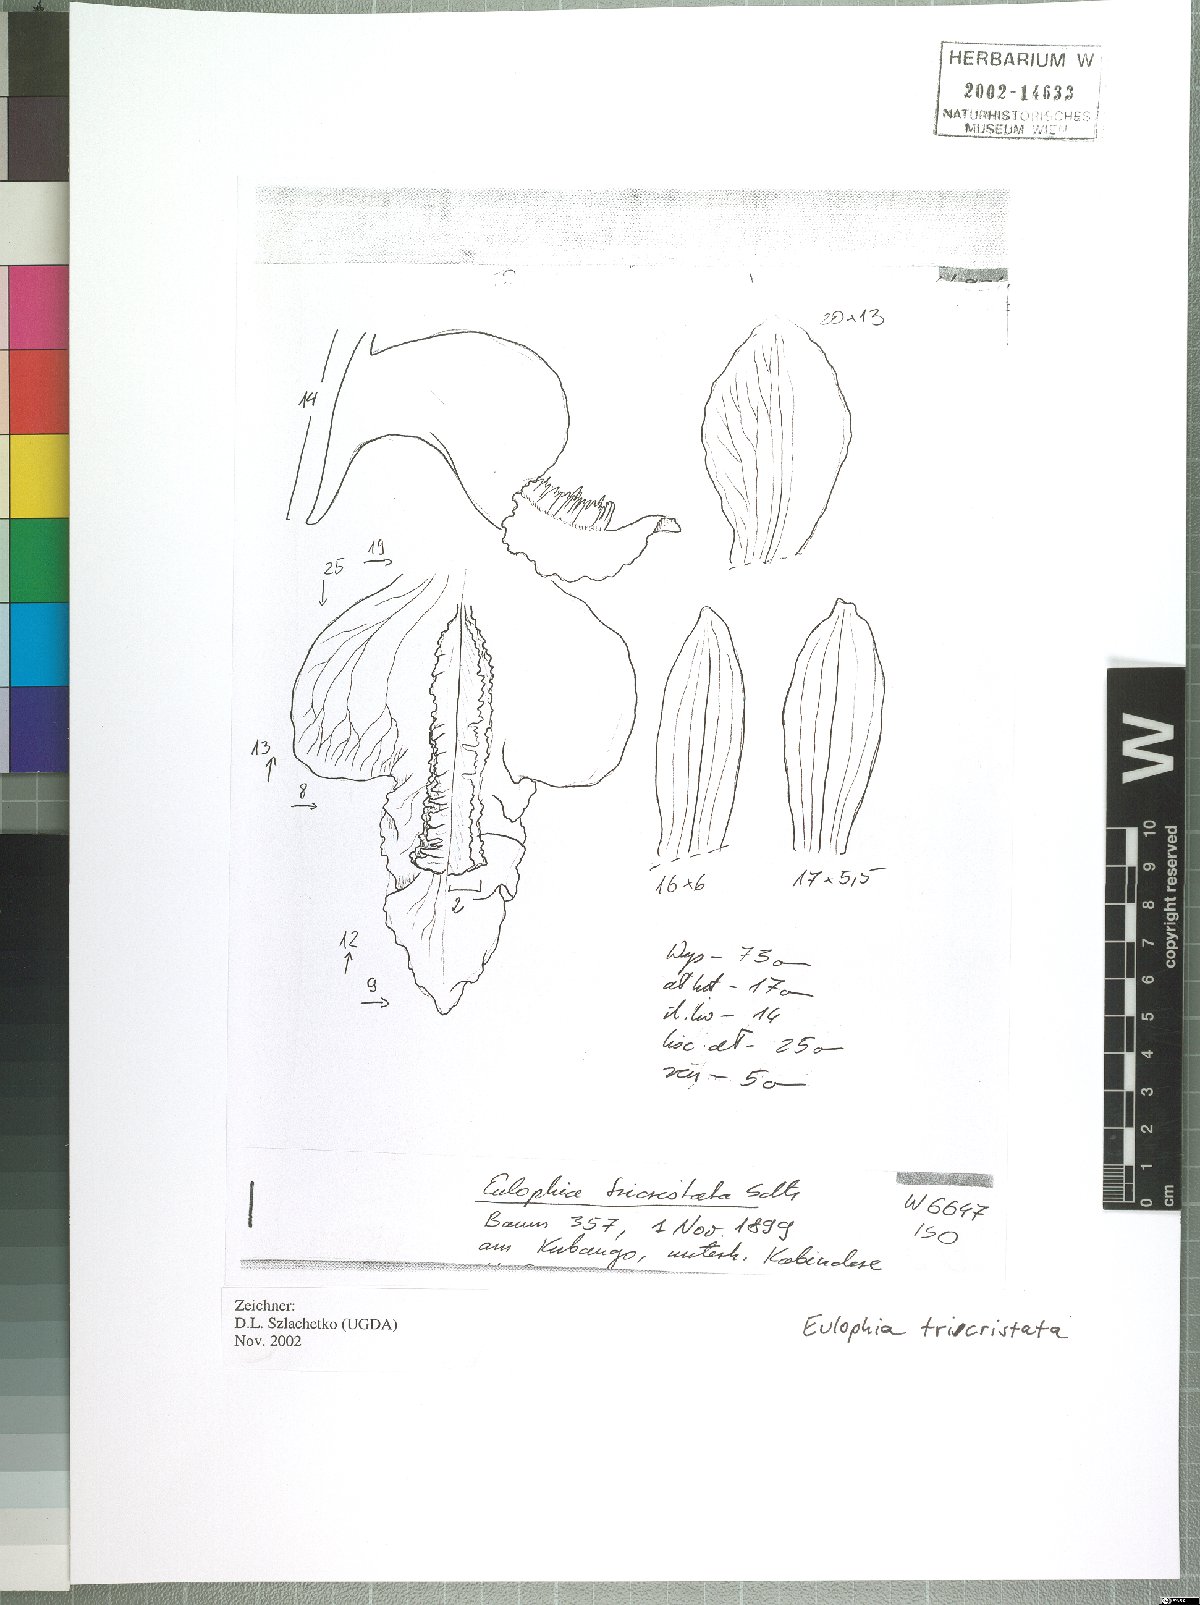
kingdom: Plantae
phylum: Tracheophyta
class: Liliopsida
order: Asparagales
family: Orchidaceae
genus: Eulophia
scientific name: Eulophia tricristata
